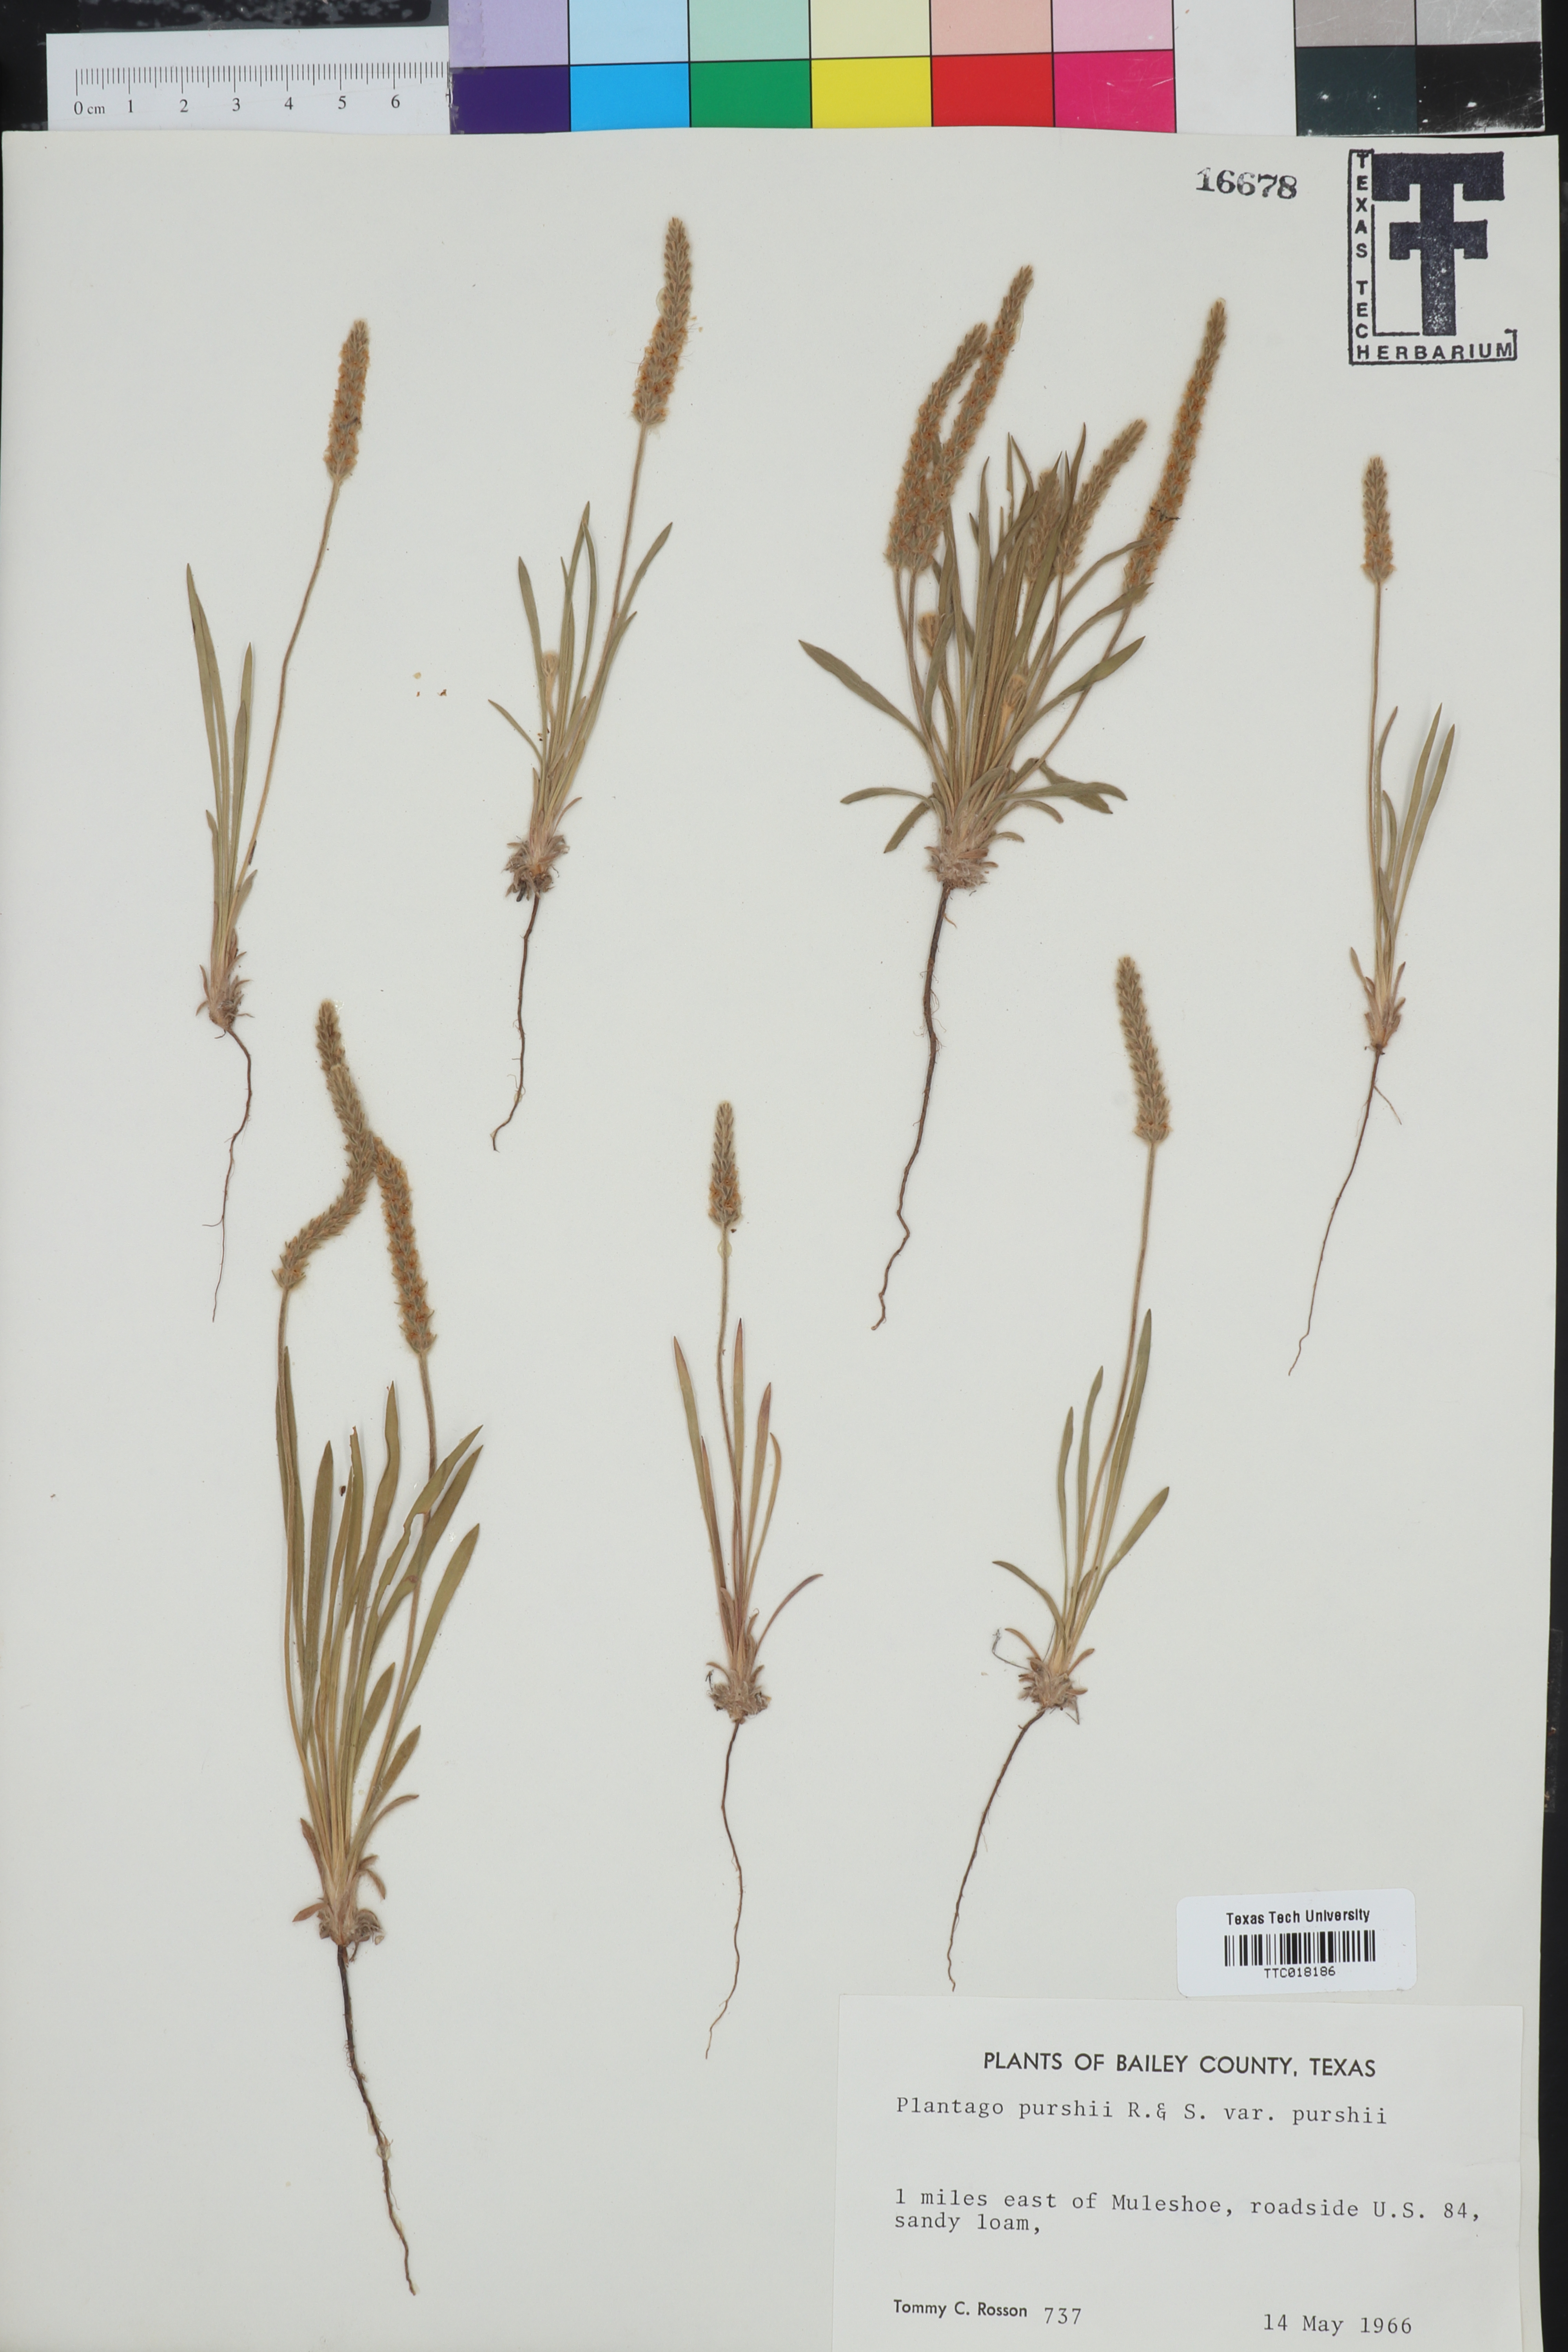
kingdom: Plantae
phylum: Tracheophyta
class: Magnoliopsida
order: Lamiales
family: Plantaginaceae
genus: Plantago
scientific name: Plantago patagonica
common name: Patagonia indian-wheat
